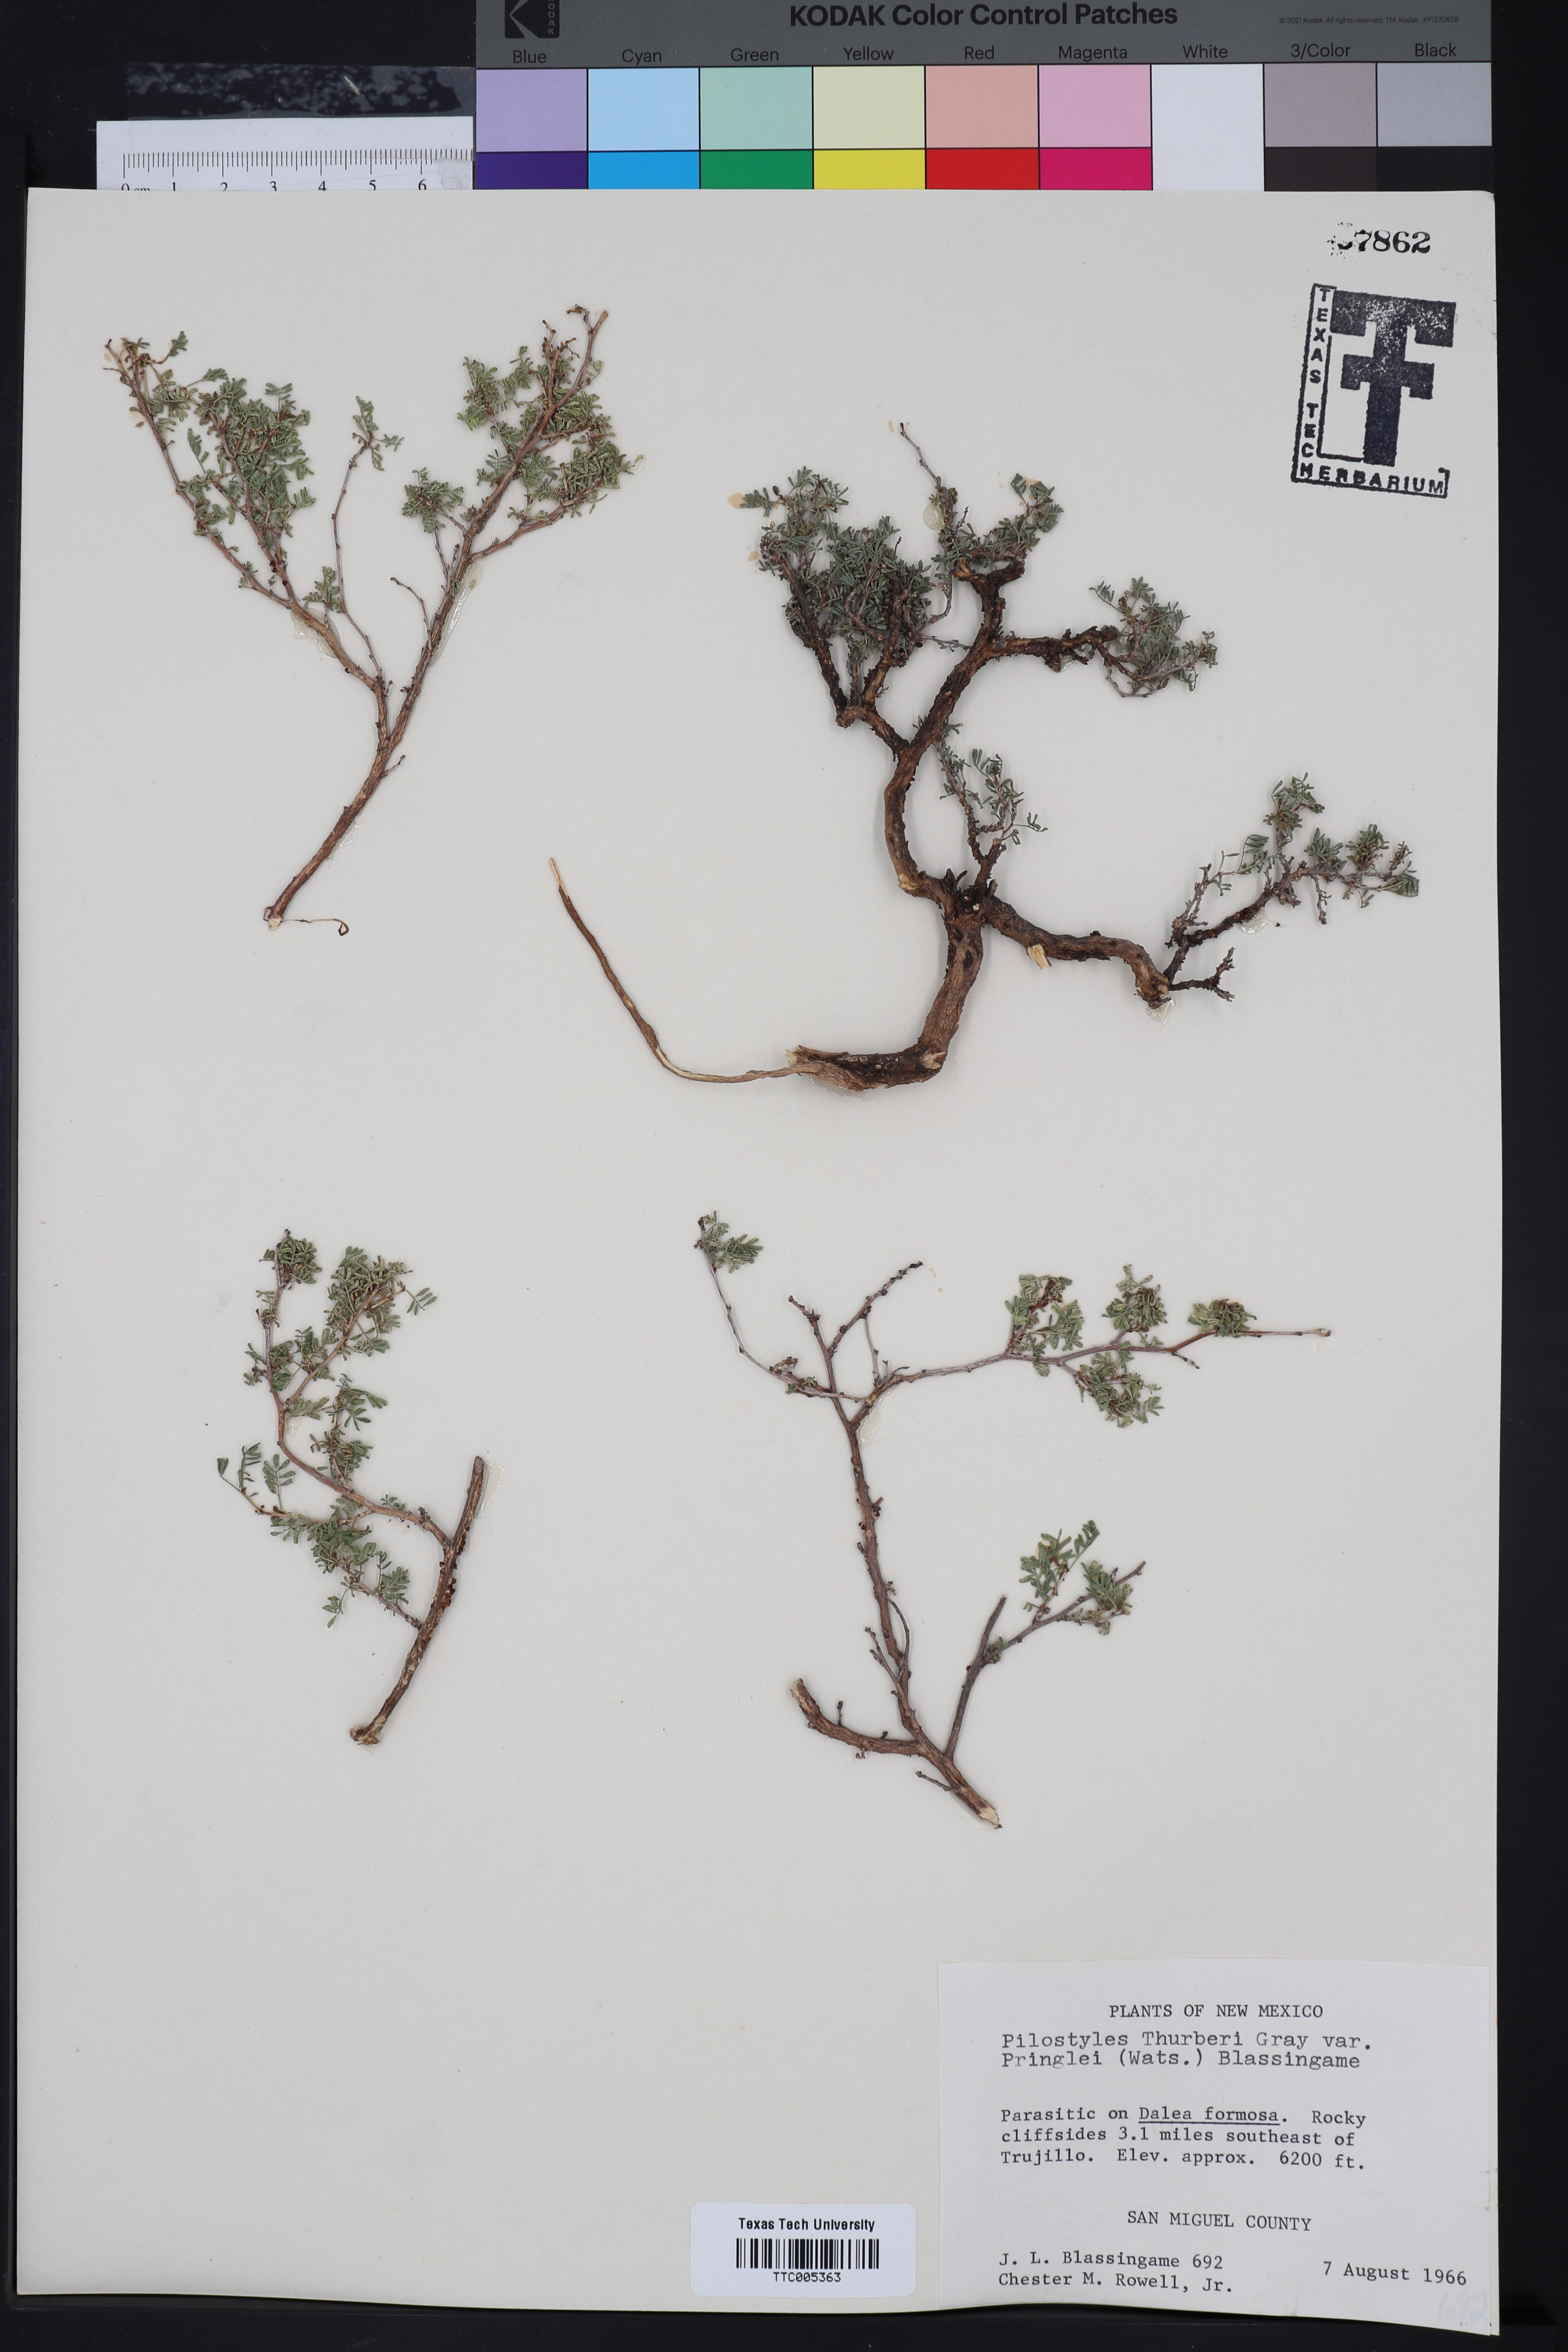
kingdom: Plantae
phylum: Tracheophyta
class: Magnoliopsida
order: Cucurbitales
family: Apodanthaceae
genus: Pilostyles
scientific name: Pilostyles thurberi
